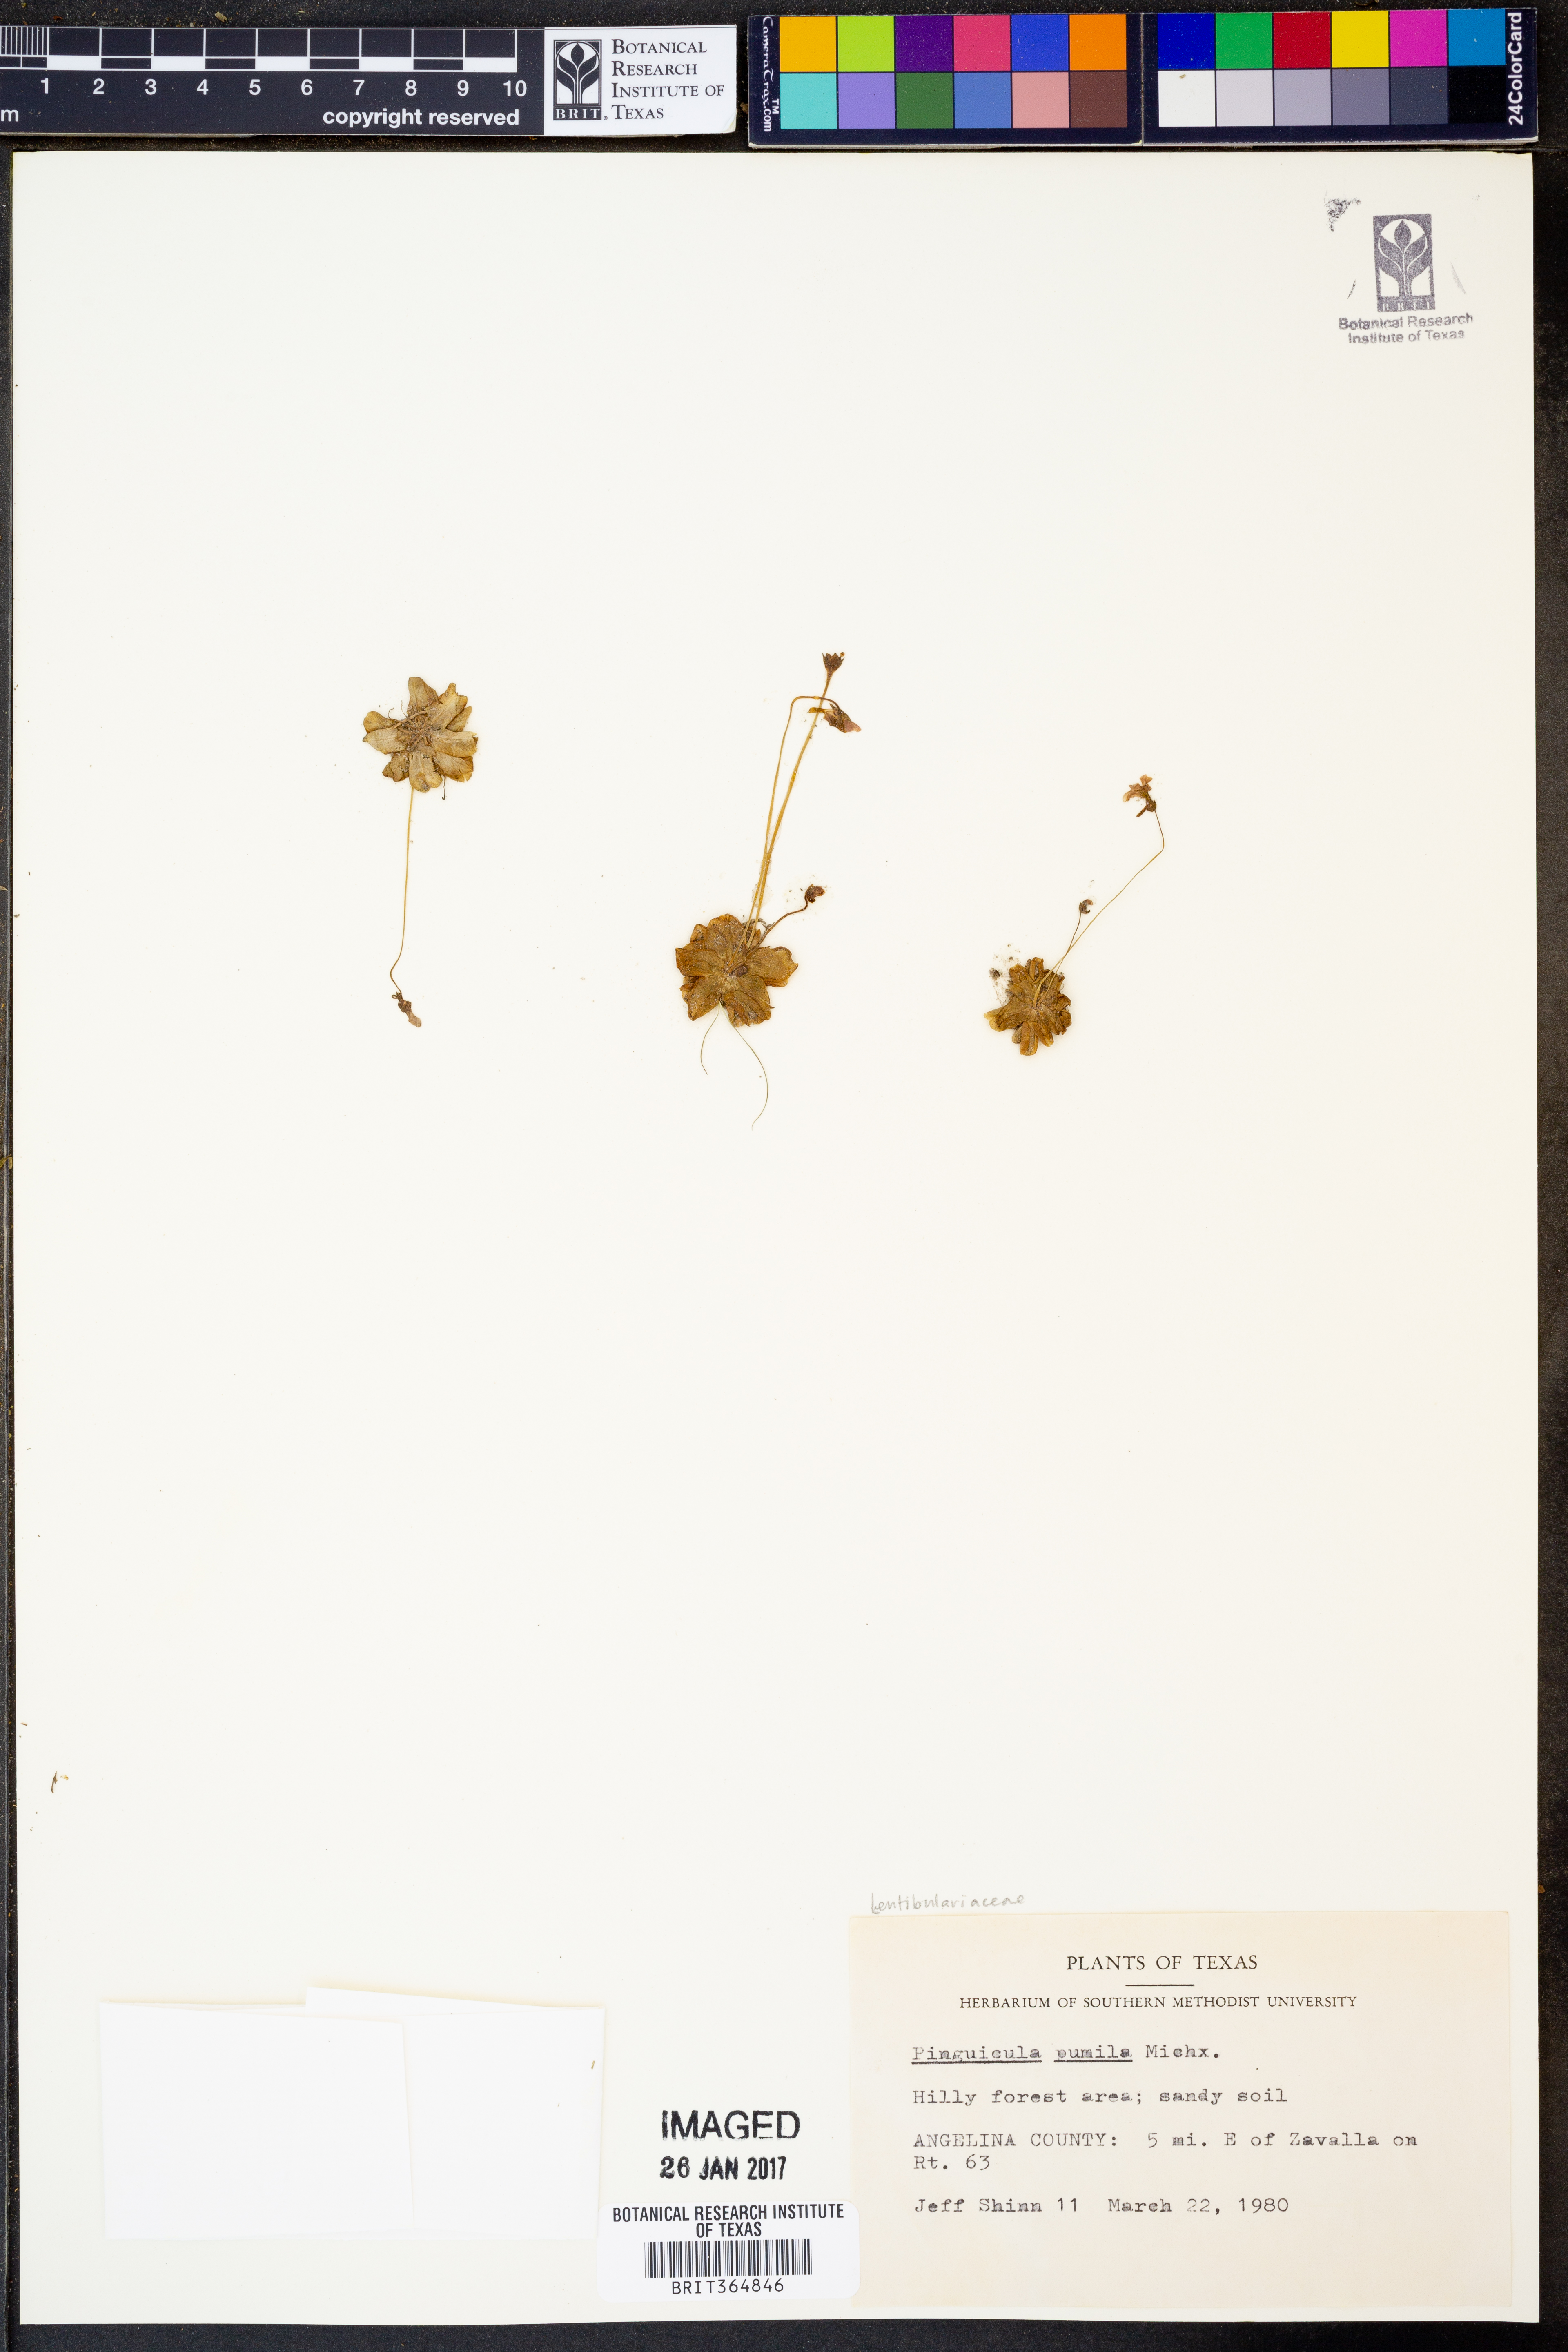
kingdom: Plantae
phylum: Tracheophyta
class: Magnoliopsida
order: Lamiales
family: Lentibulariaceae
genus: Pinguicula
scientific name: Pinguicula pumila
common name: Small butterwort
